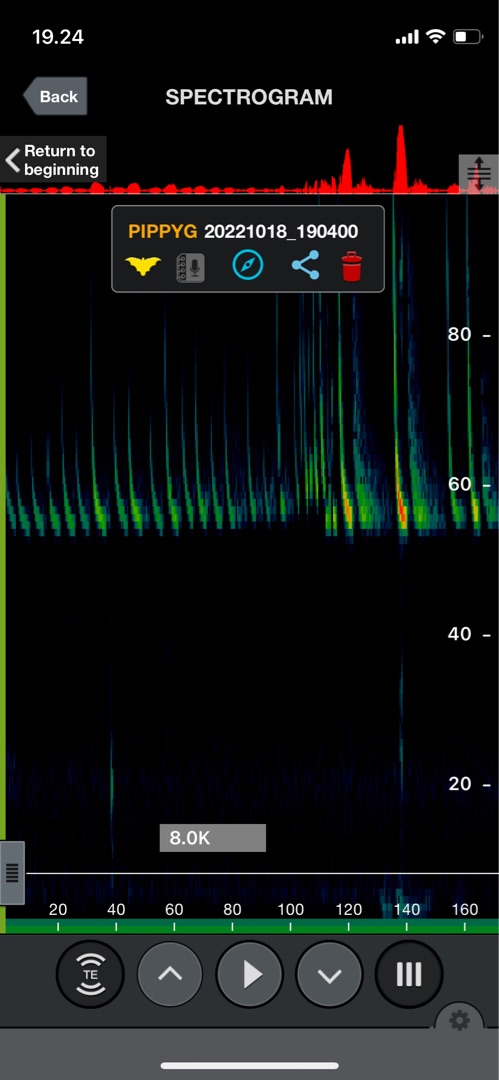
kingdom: Animalia
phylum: Chordata
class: Mammalia
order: Chiroptera
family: Vespertilionidae
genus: Pipistrellus
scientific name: Pipistrellus pygmaeus
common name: Dværgflagermus
